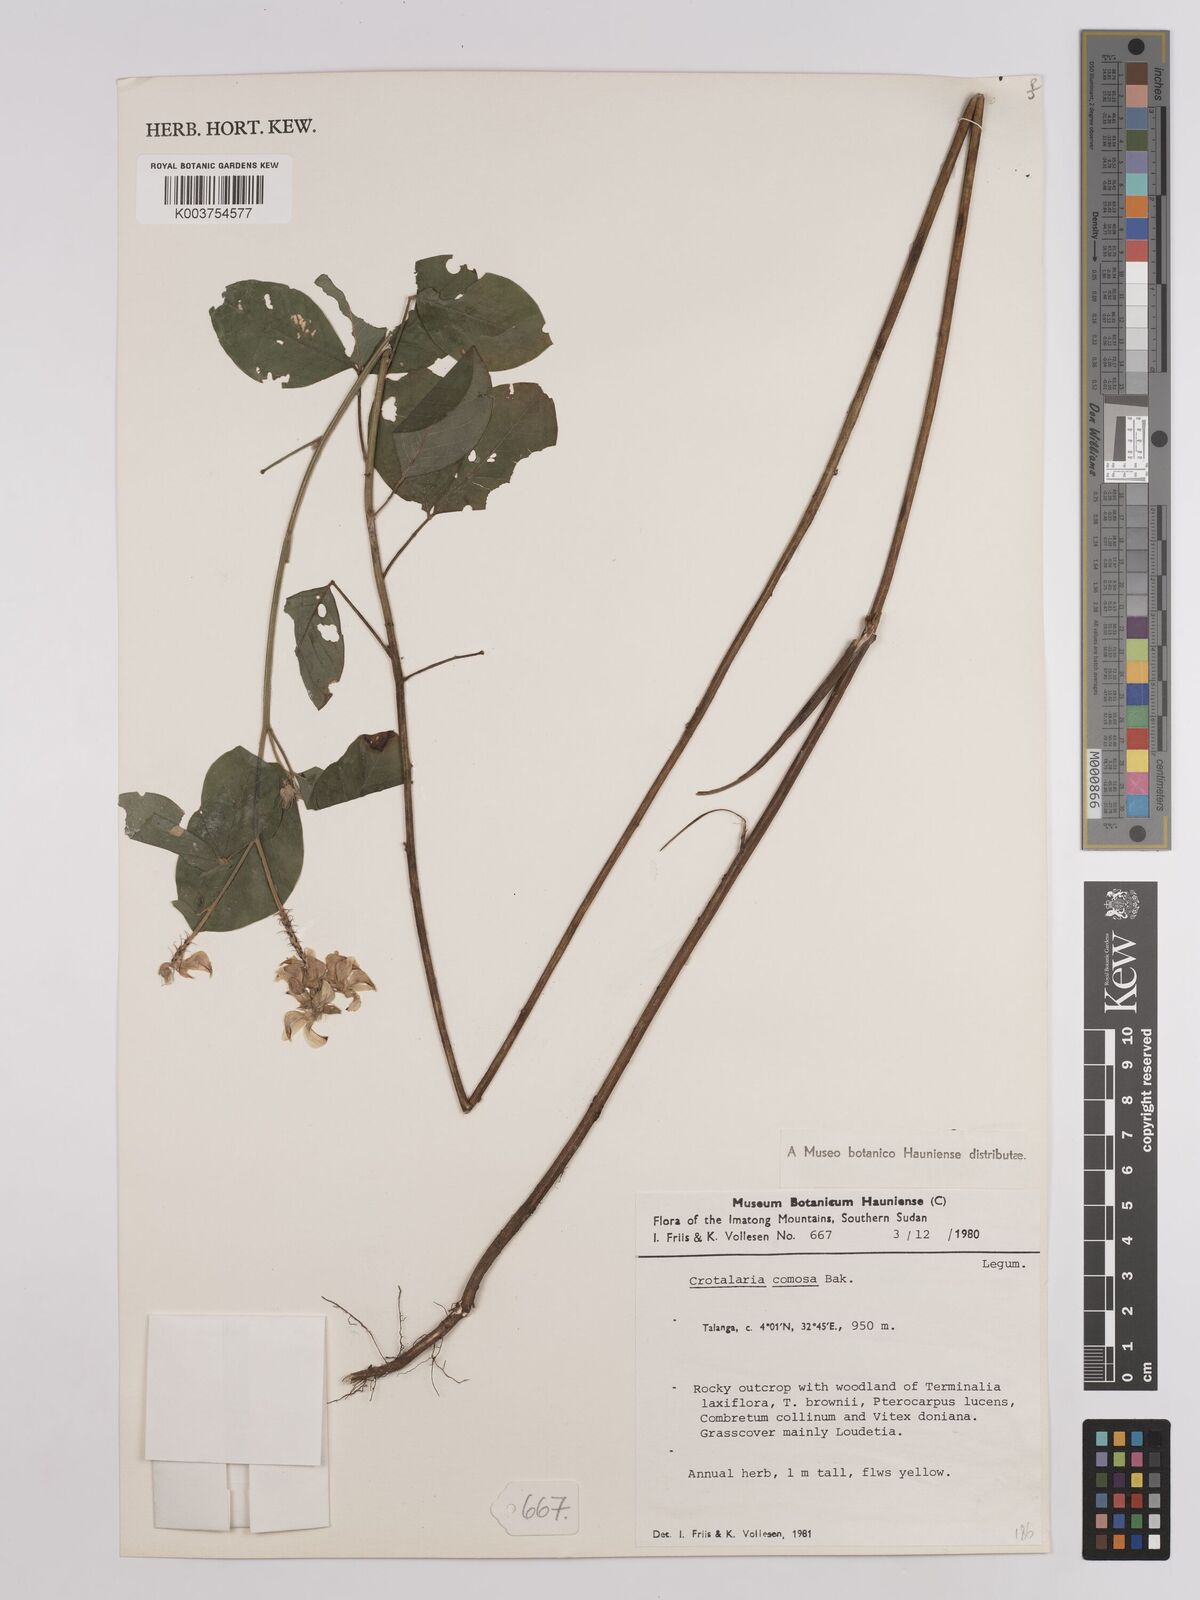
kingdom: Plantae
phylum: Tracheophyta
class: Magnoliopsida
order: Fabales
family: Fabaceae
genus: Crotalaria
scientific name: Crotalaria comosa
